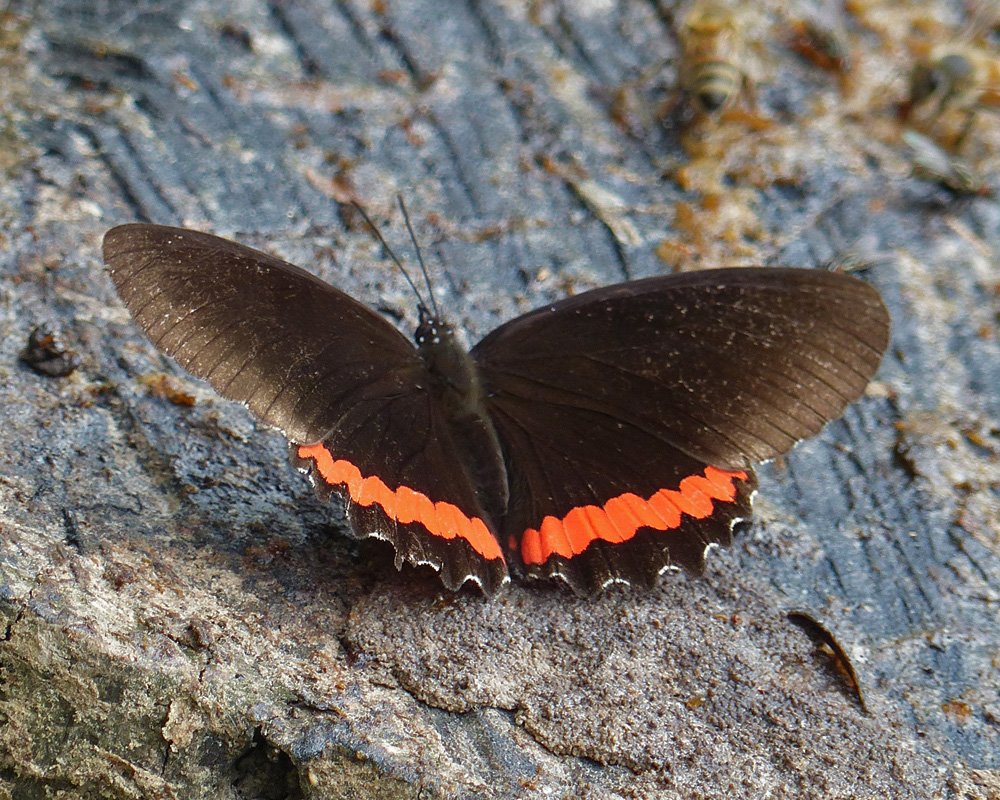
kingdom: Animalia
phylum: Arthropoda
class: Insecta
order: Lepidoptera
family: Sesiidae
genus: Sesia
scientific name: Sesia Biblis hyperia
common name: Red Rim
